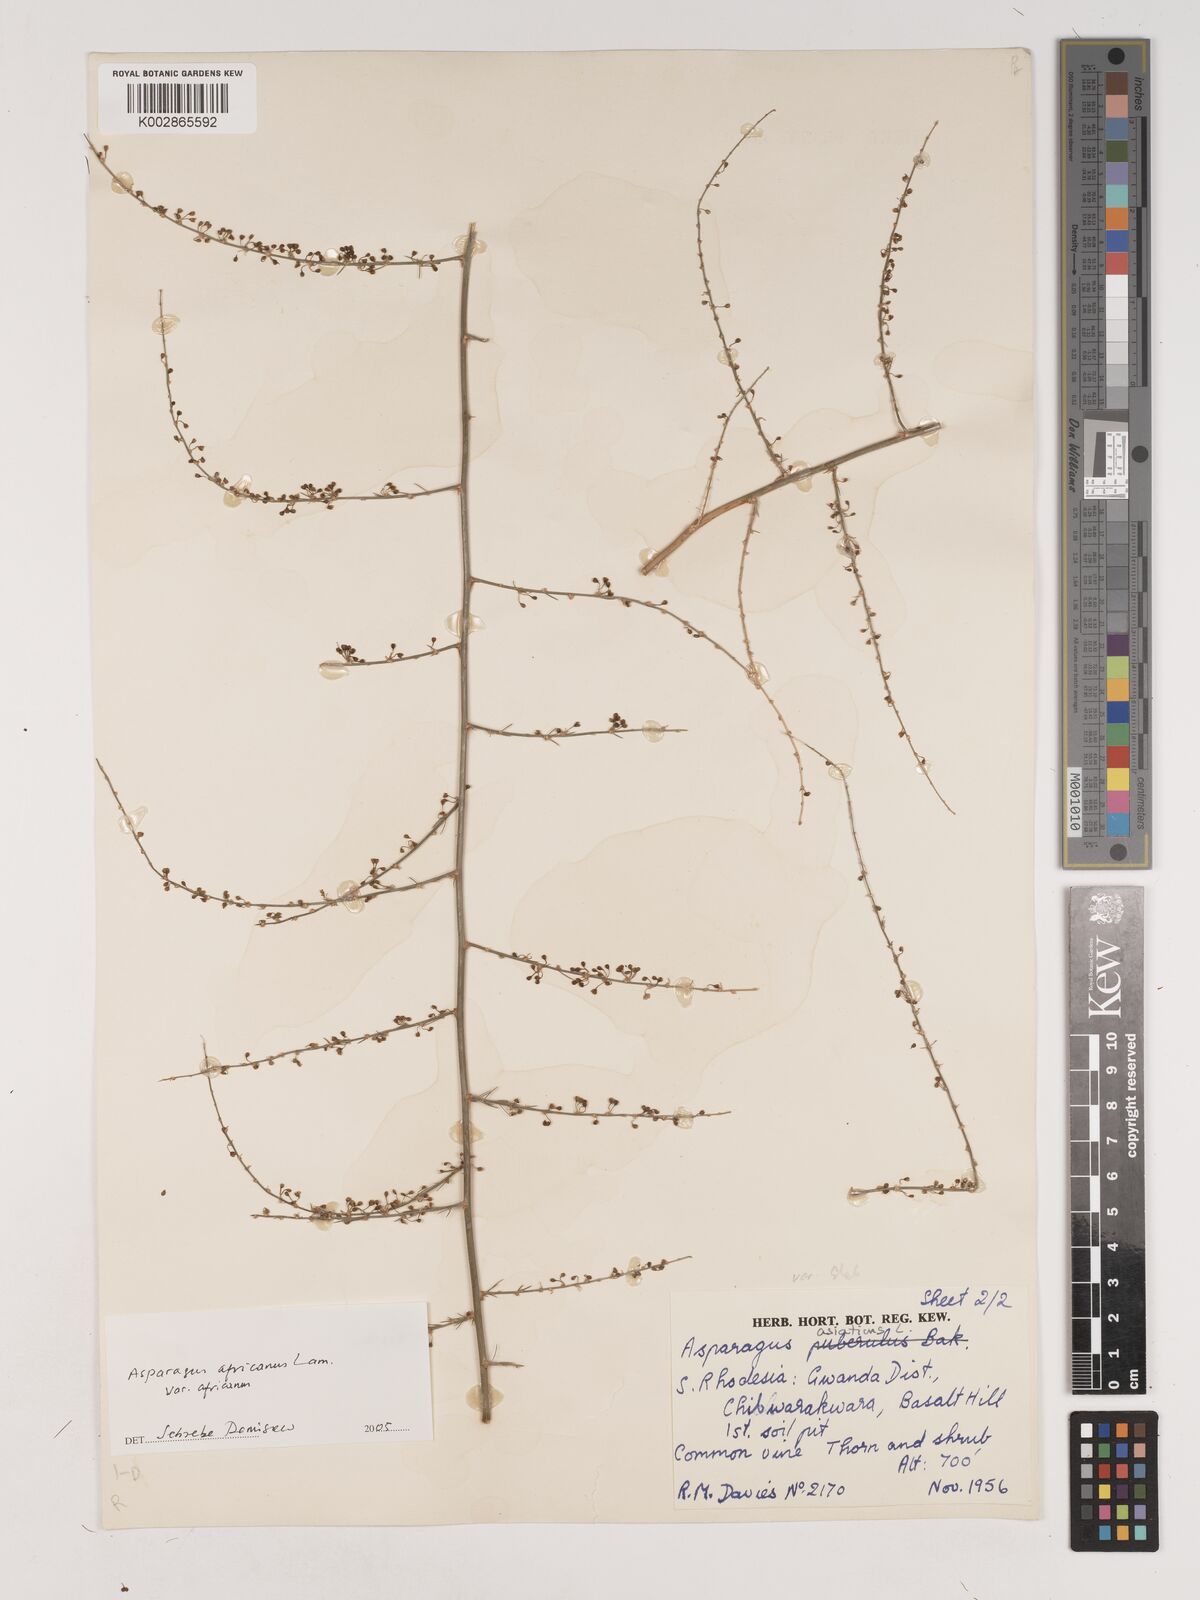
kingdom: Plantae
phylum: Tracheophyta
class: Liliopsida
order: Asparagales
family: Asparagaceae
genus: Asparagus
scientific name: Asparagus africanus
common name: Asparagus-fern
